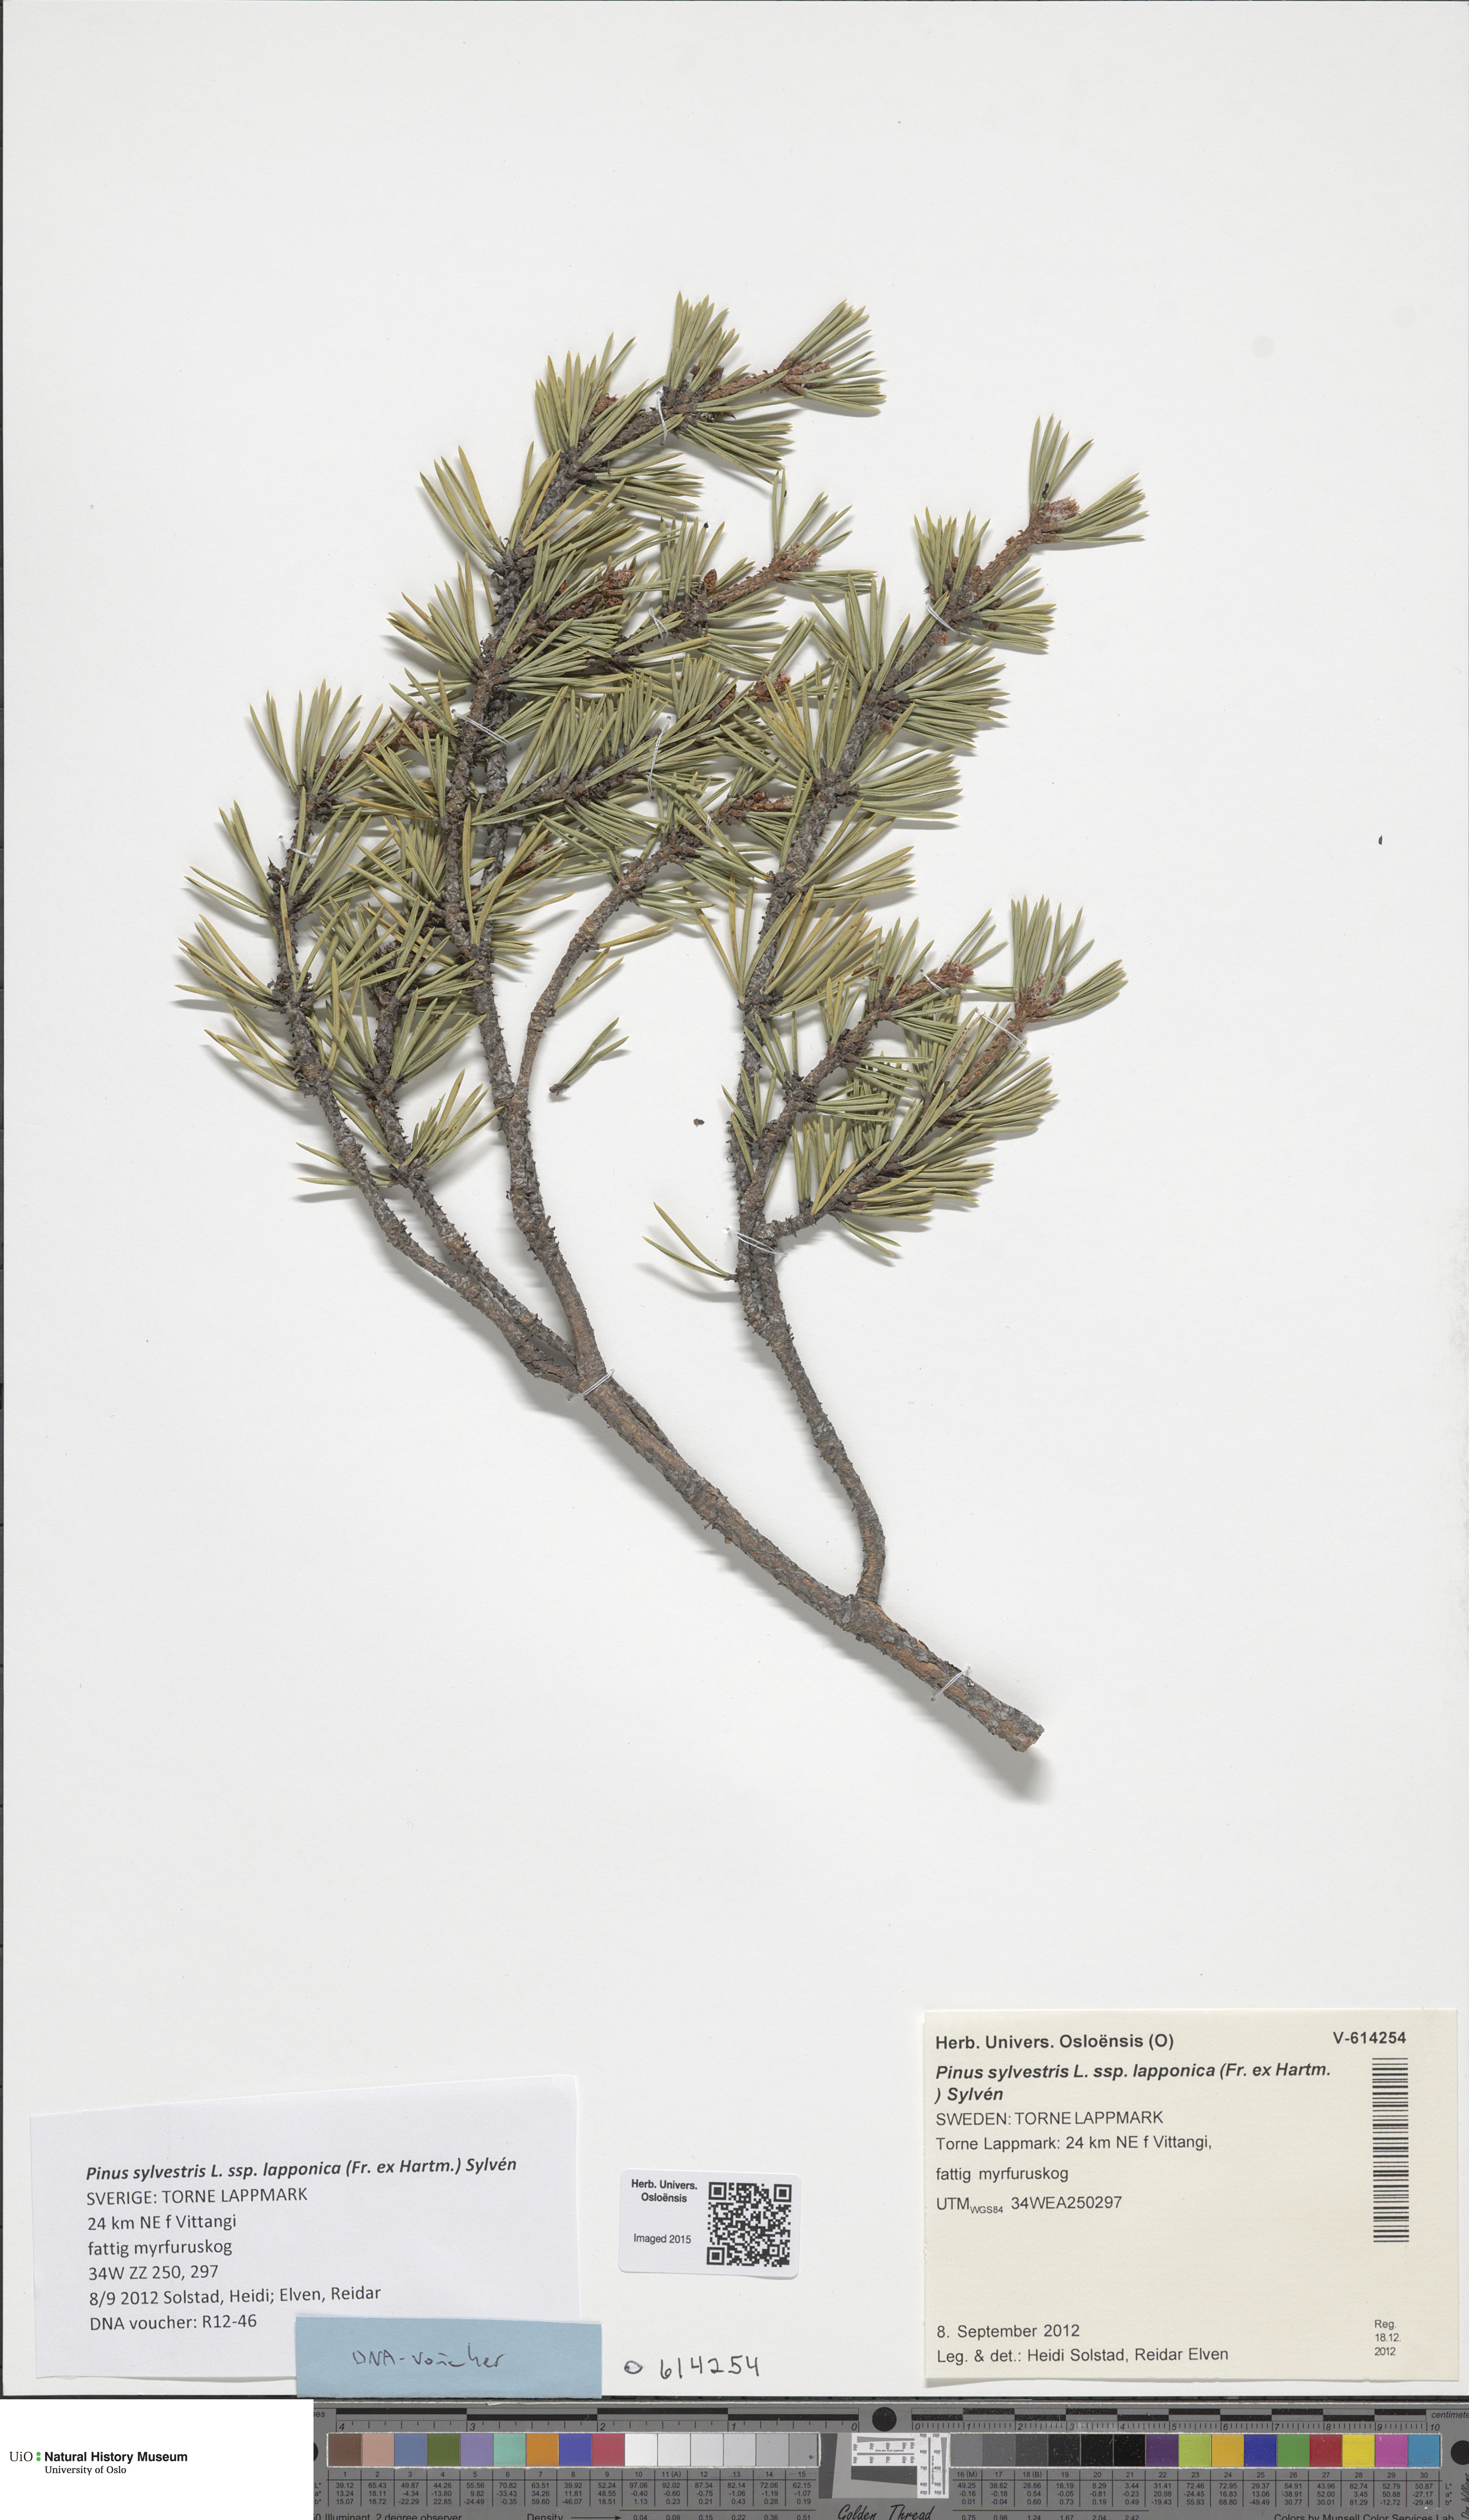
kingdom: Plantae
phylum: Tracheophyta
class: Pinopsida
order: Pinales
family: Pinaceae
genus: Pinus
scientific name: Pinus sylvestris
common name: Scots pine
